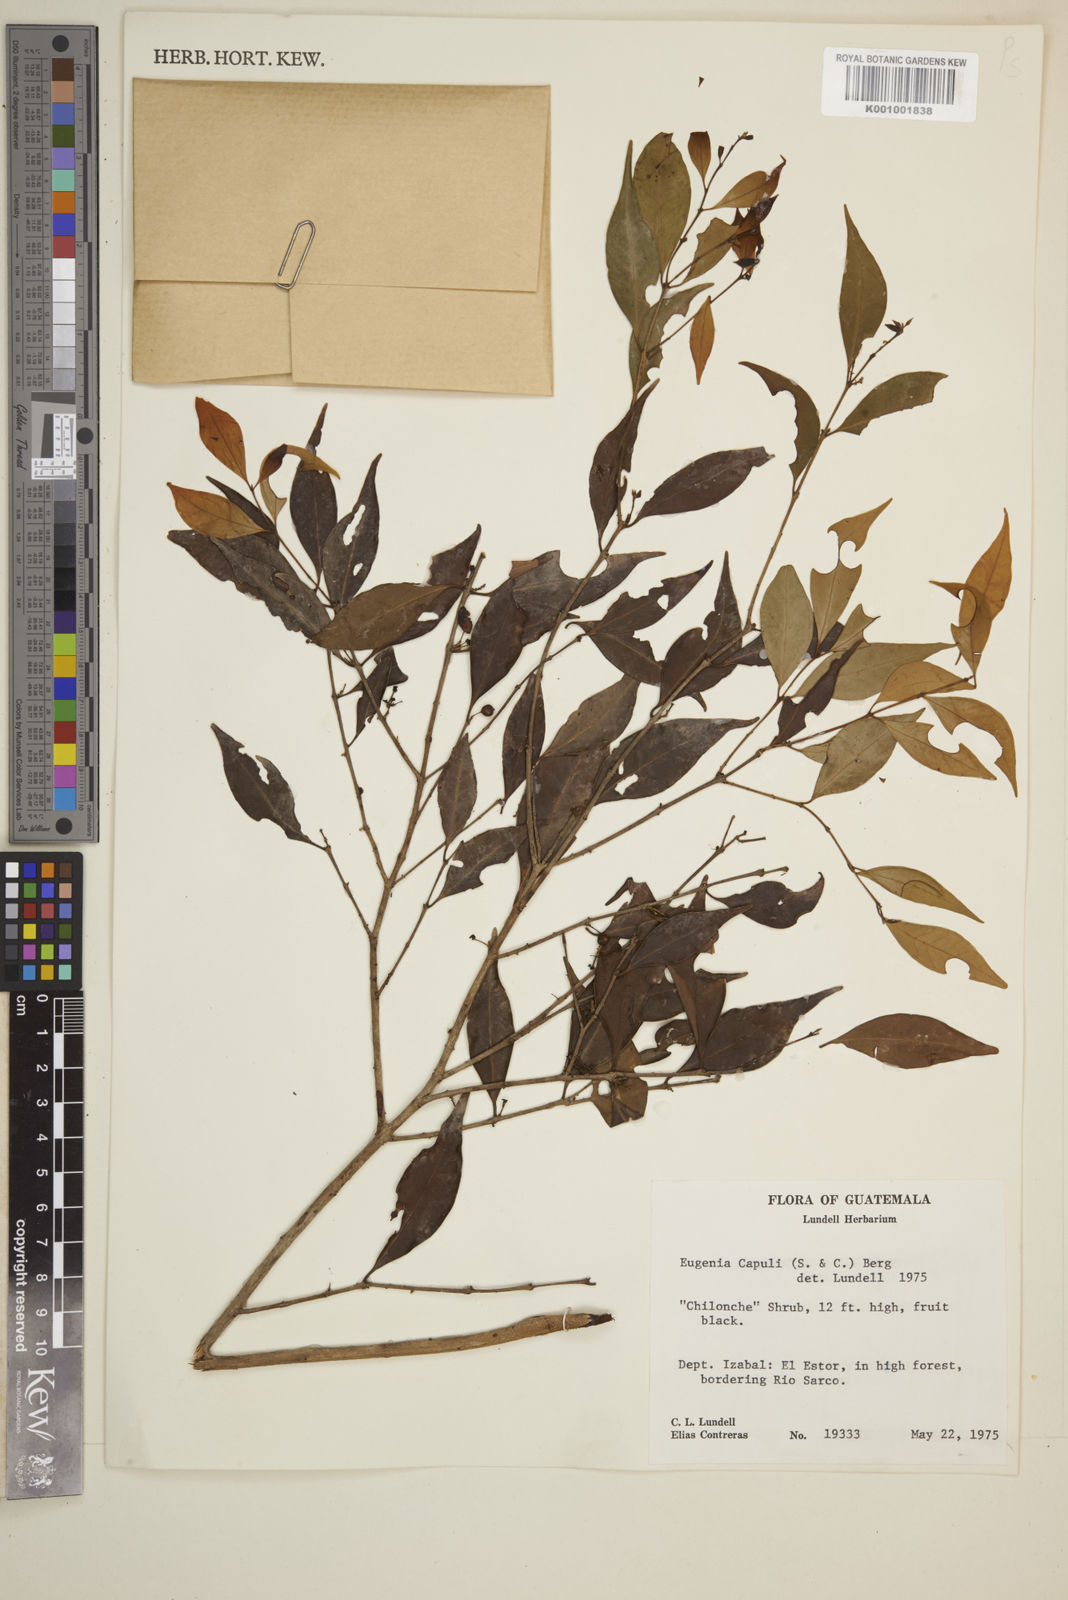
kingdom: Plantae
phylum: Tracheophyta
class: Magnoliopsida
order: Myrtales
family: Myrtaceae
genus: Eugenia
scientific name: Eugenia capuli
